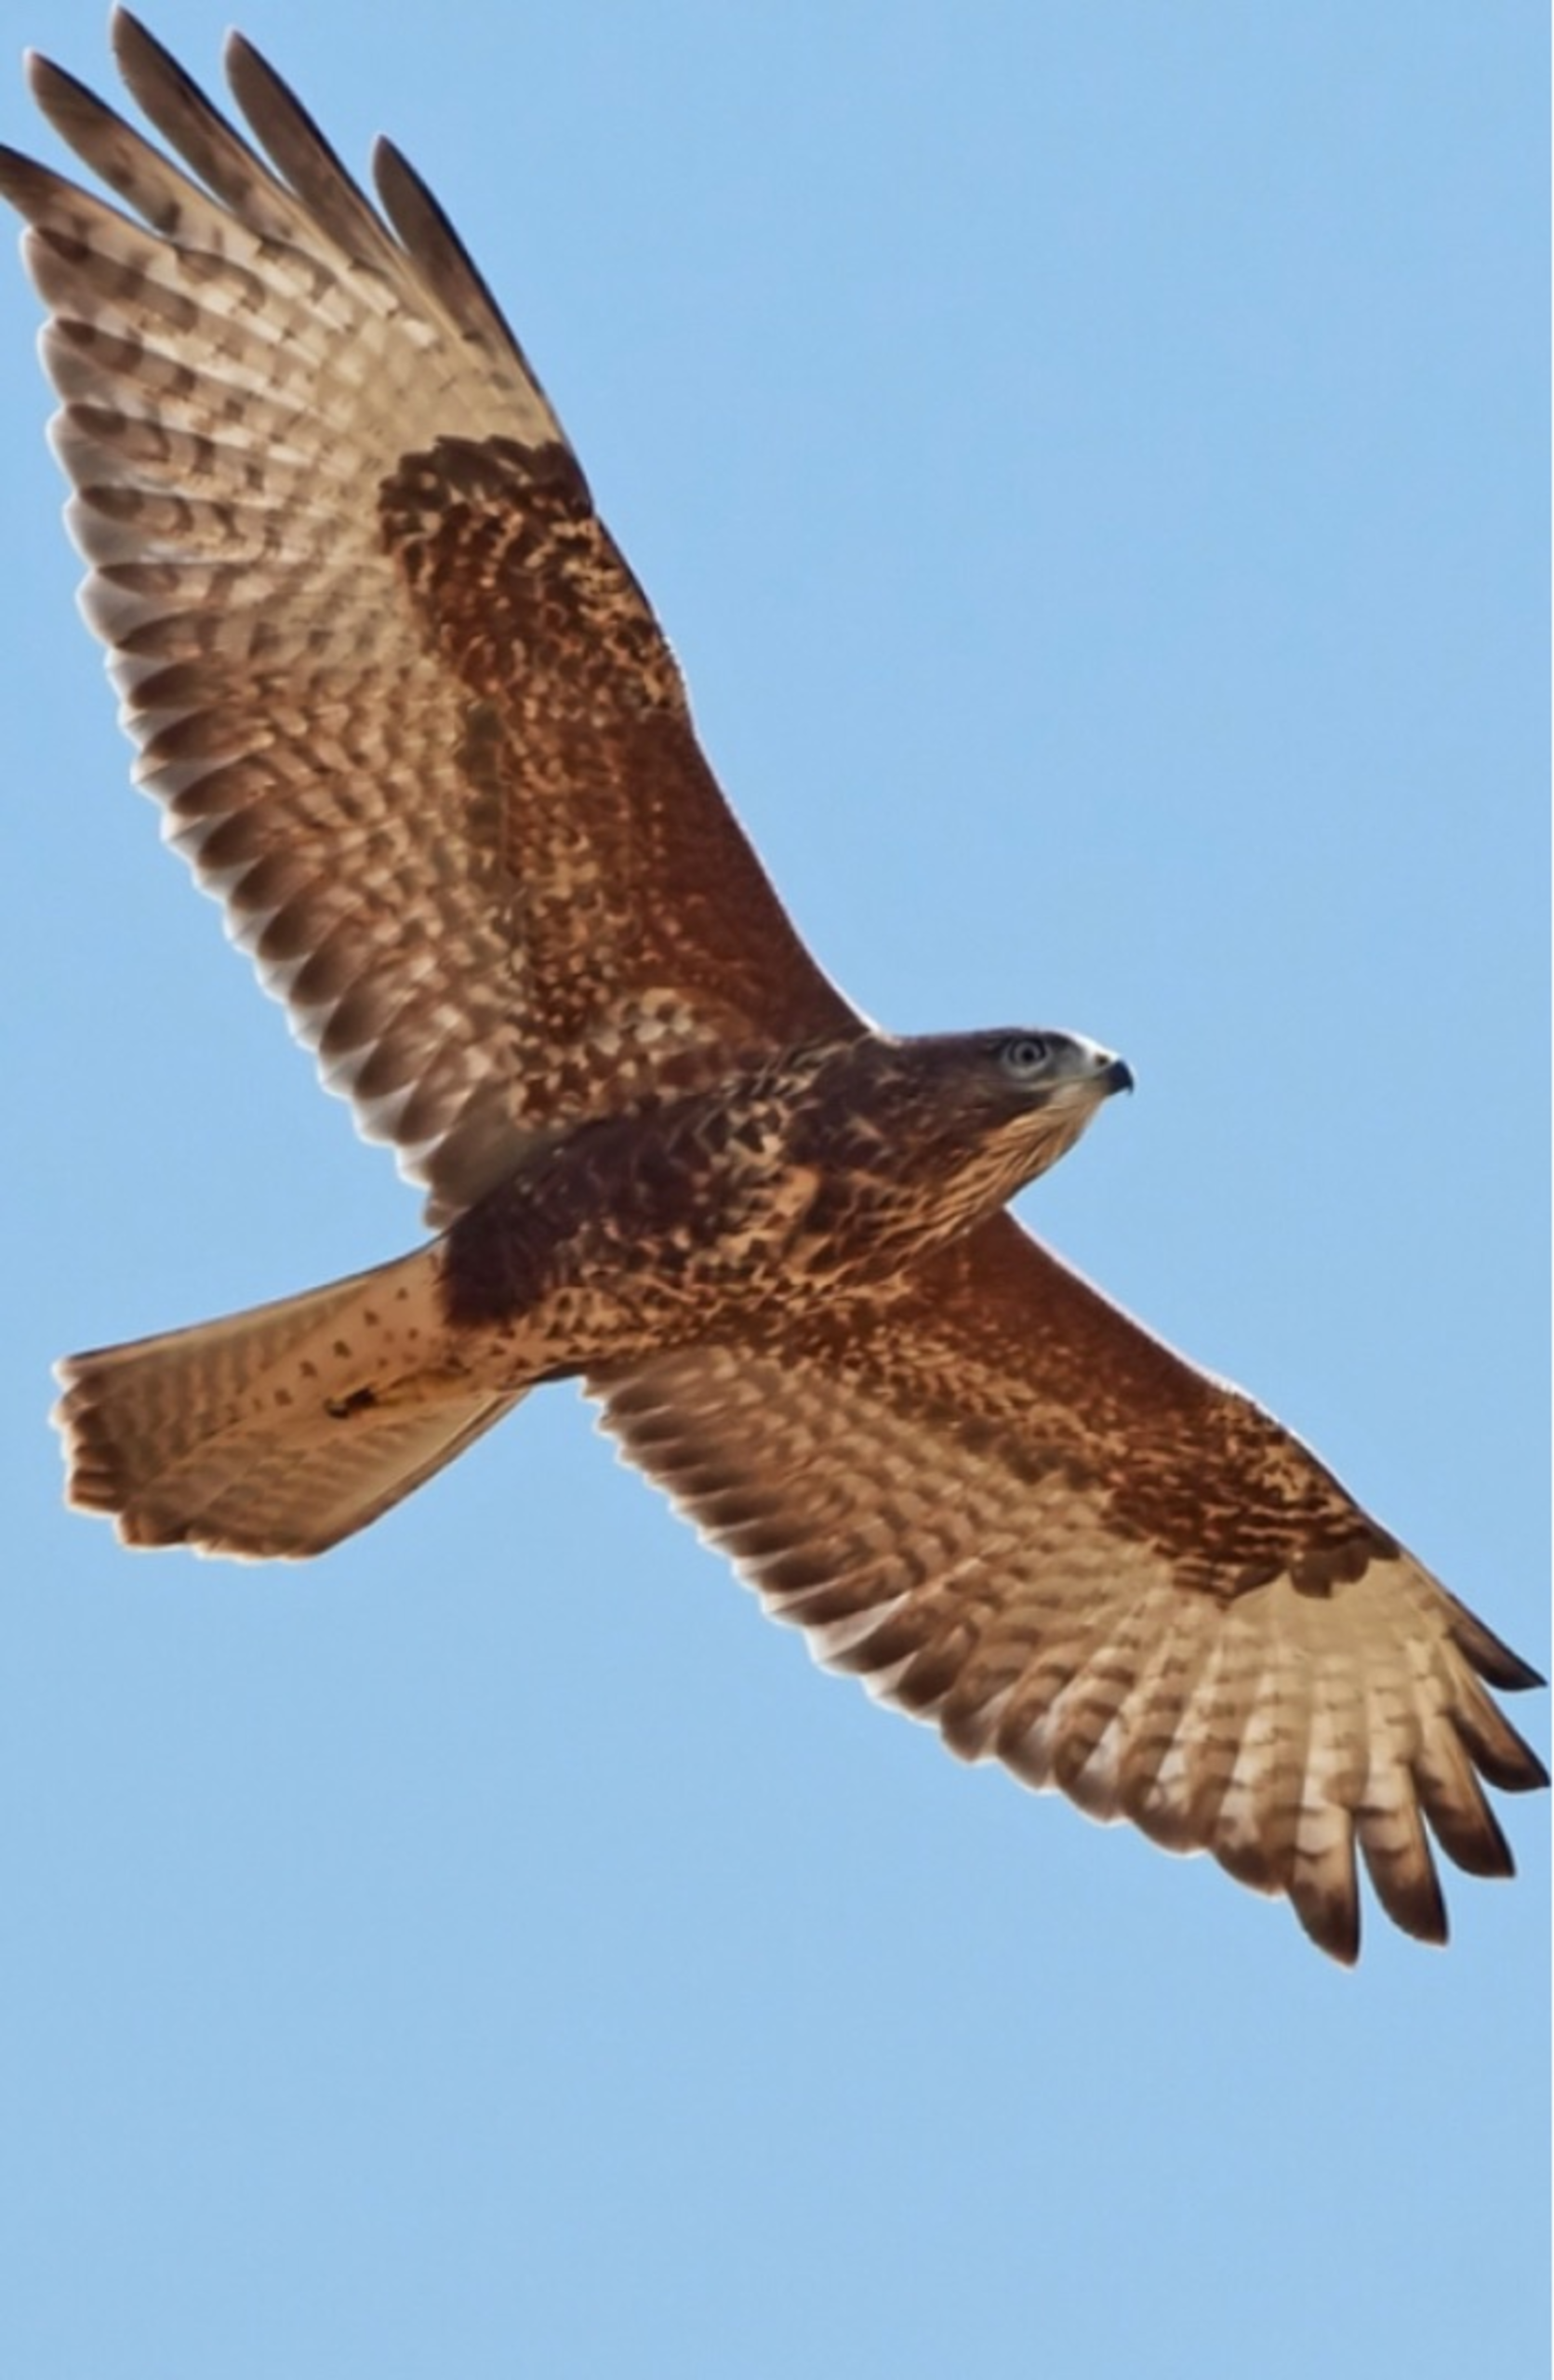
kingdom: Animalia
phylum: Chordata
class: Aves
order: Accipitriformes
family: Accipitridae
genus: Buteo
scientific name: Buteo buteo
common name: Musvåge
